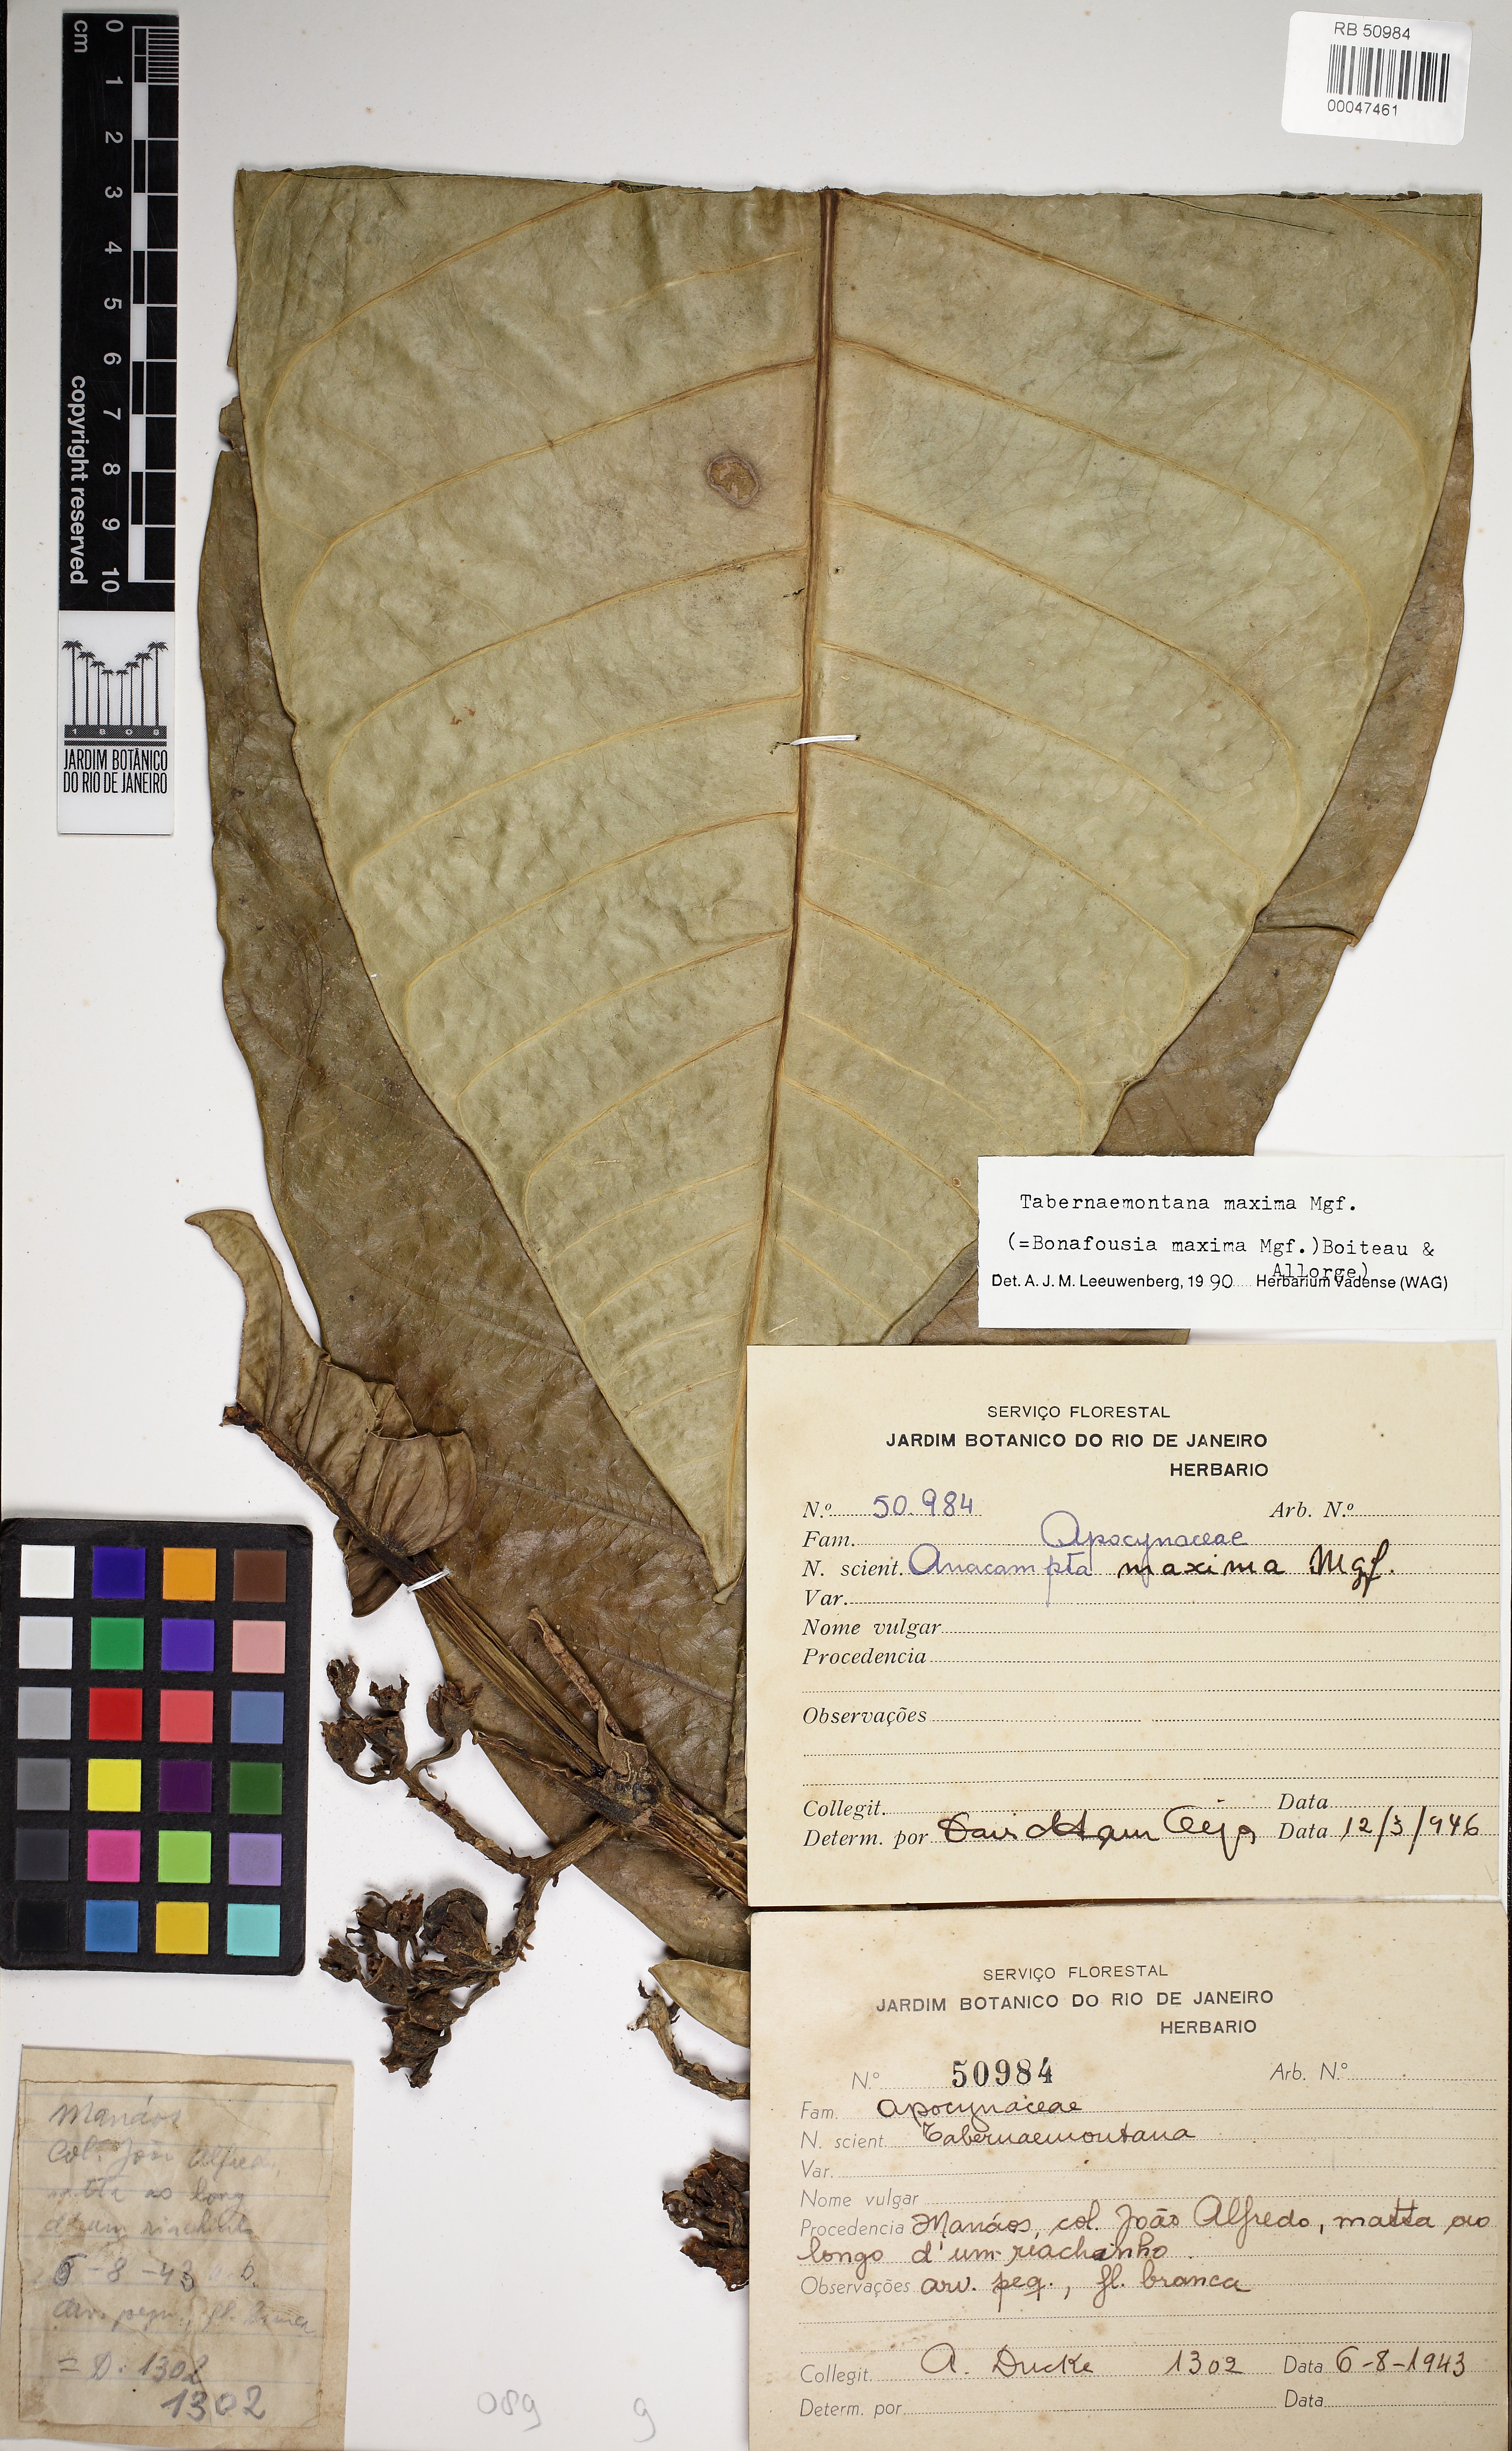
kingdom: Plantae
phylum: Tracheophyta
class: Magnoliopsida
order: Gentianales
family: Apocynaceae
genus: Tabernaemontana
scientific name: Tabernaemontana maxima
